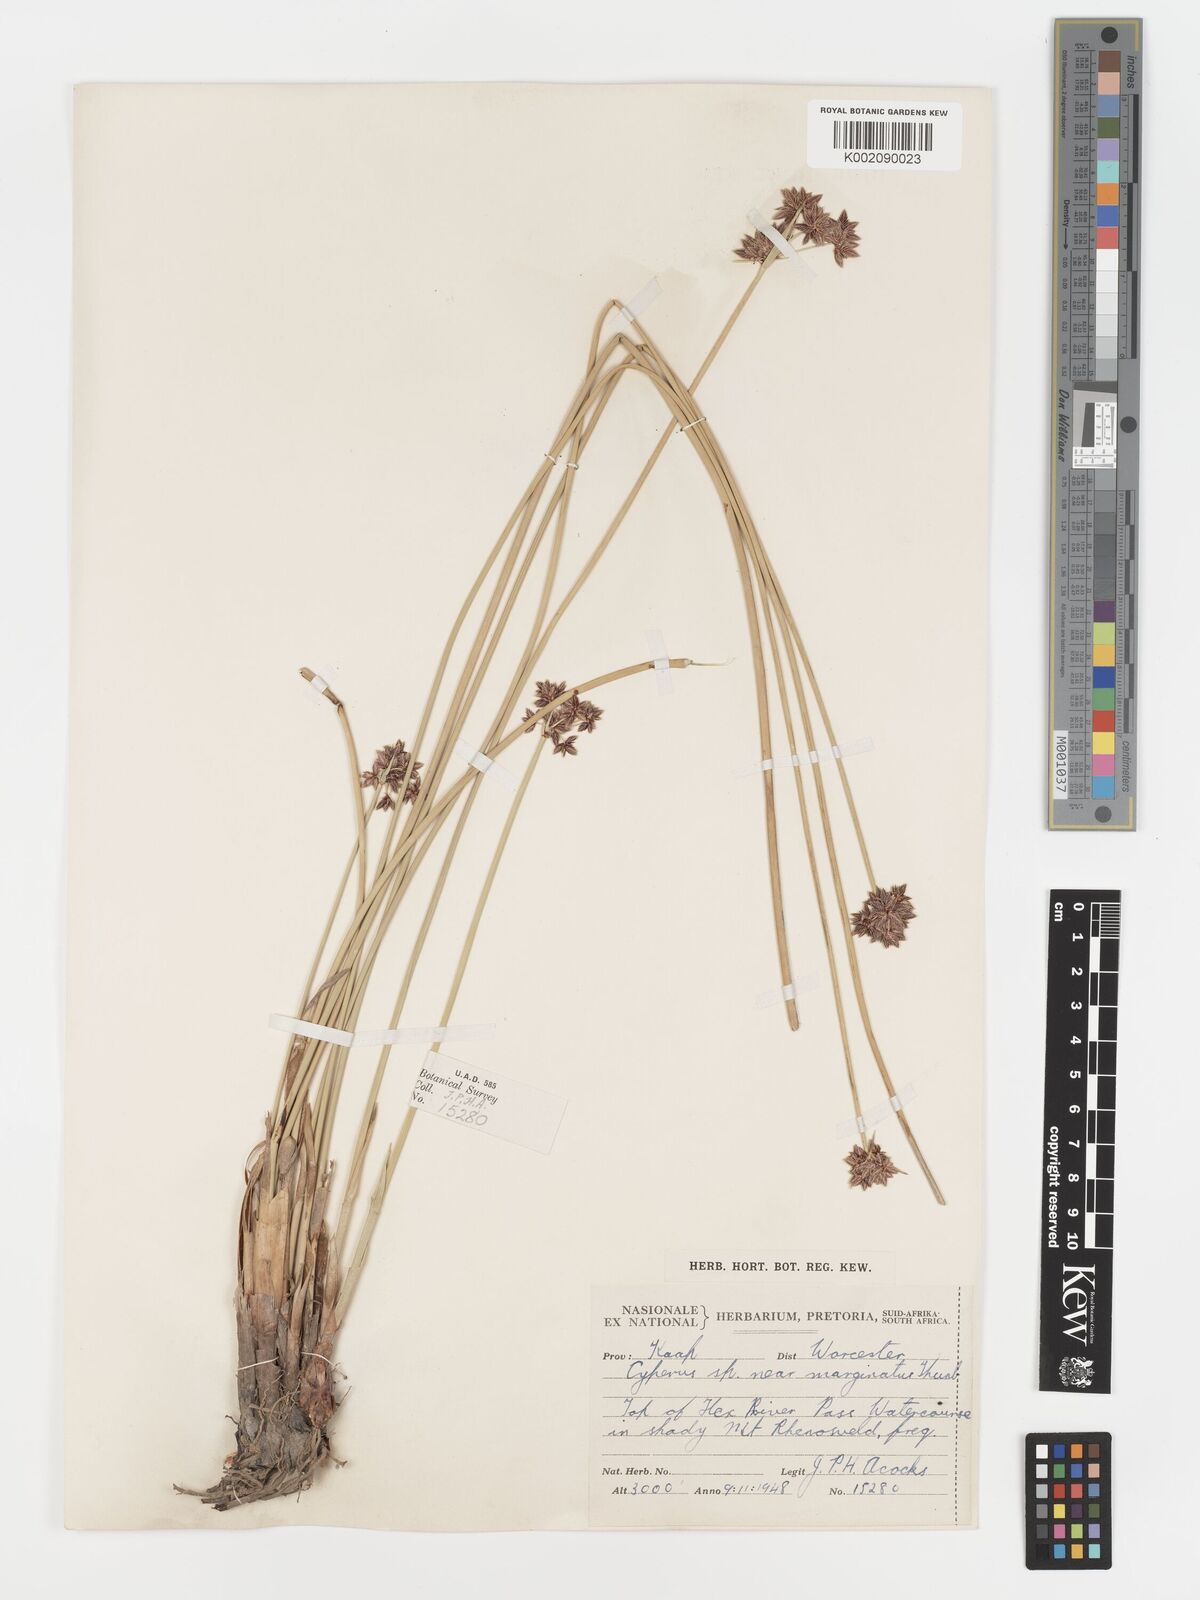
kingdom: Plantae
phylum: Tracheophyta
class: Liliopsida
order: Poales
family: Cyperaceae
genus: Cyperus
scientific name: Cyperus marginatus
